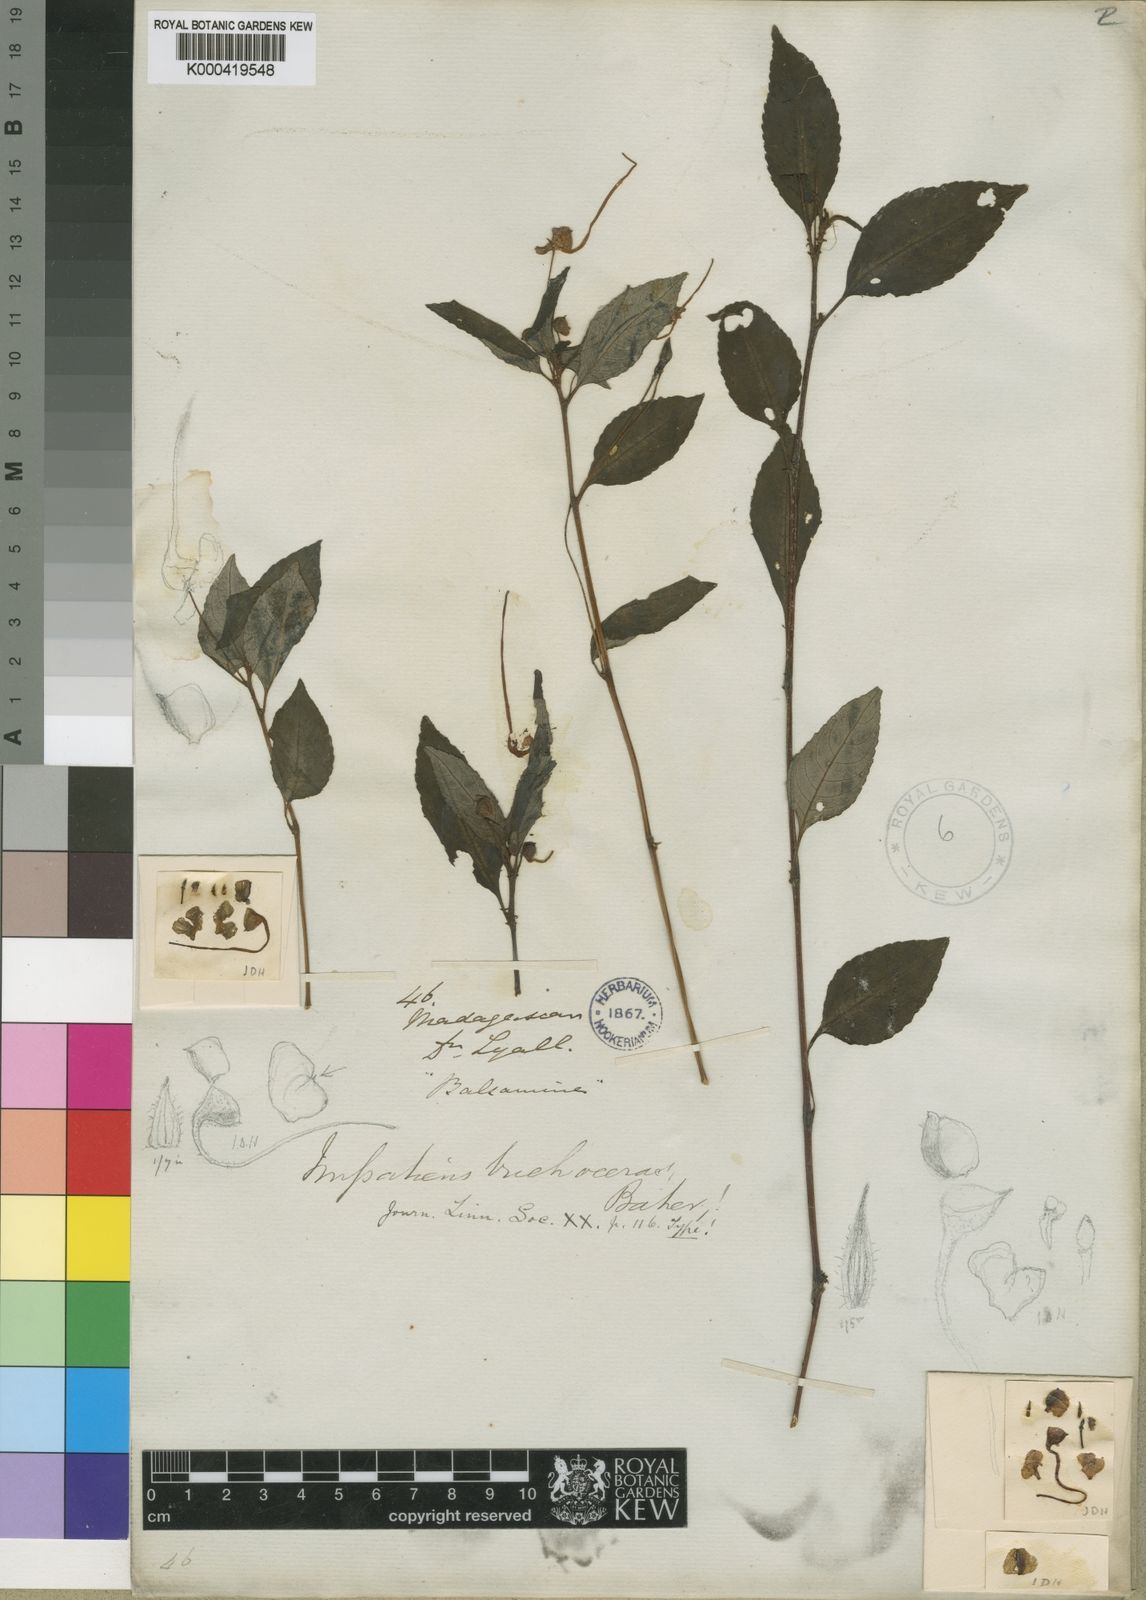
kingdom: Plantae
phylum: Tracheophyta
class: Magnoliopsida
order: Ericales
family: Balsaminaceae
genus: Impatiens
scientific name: Impatiens lyallii
